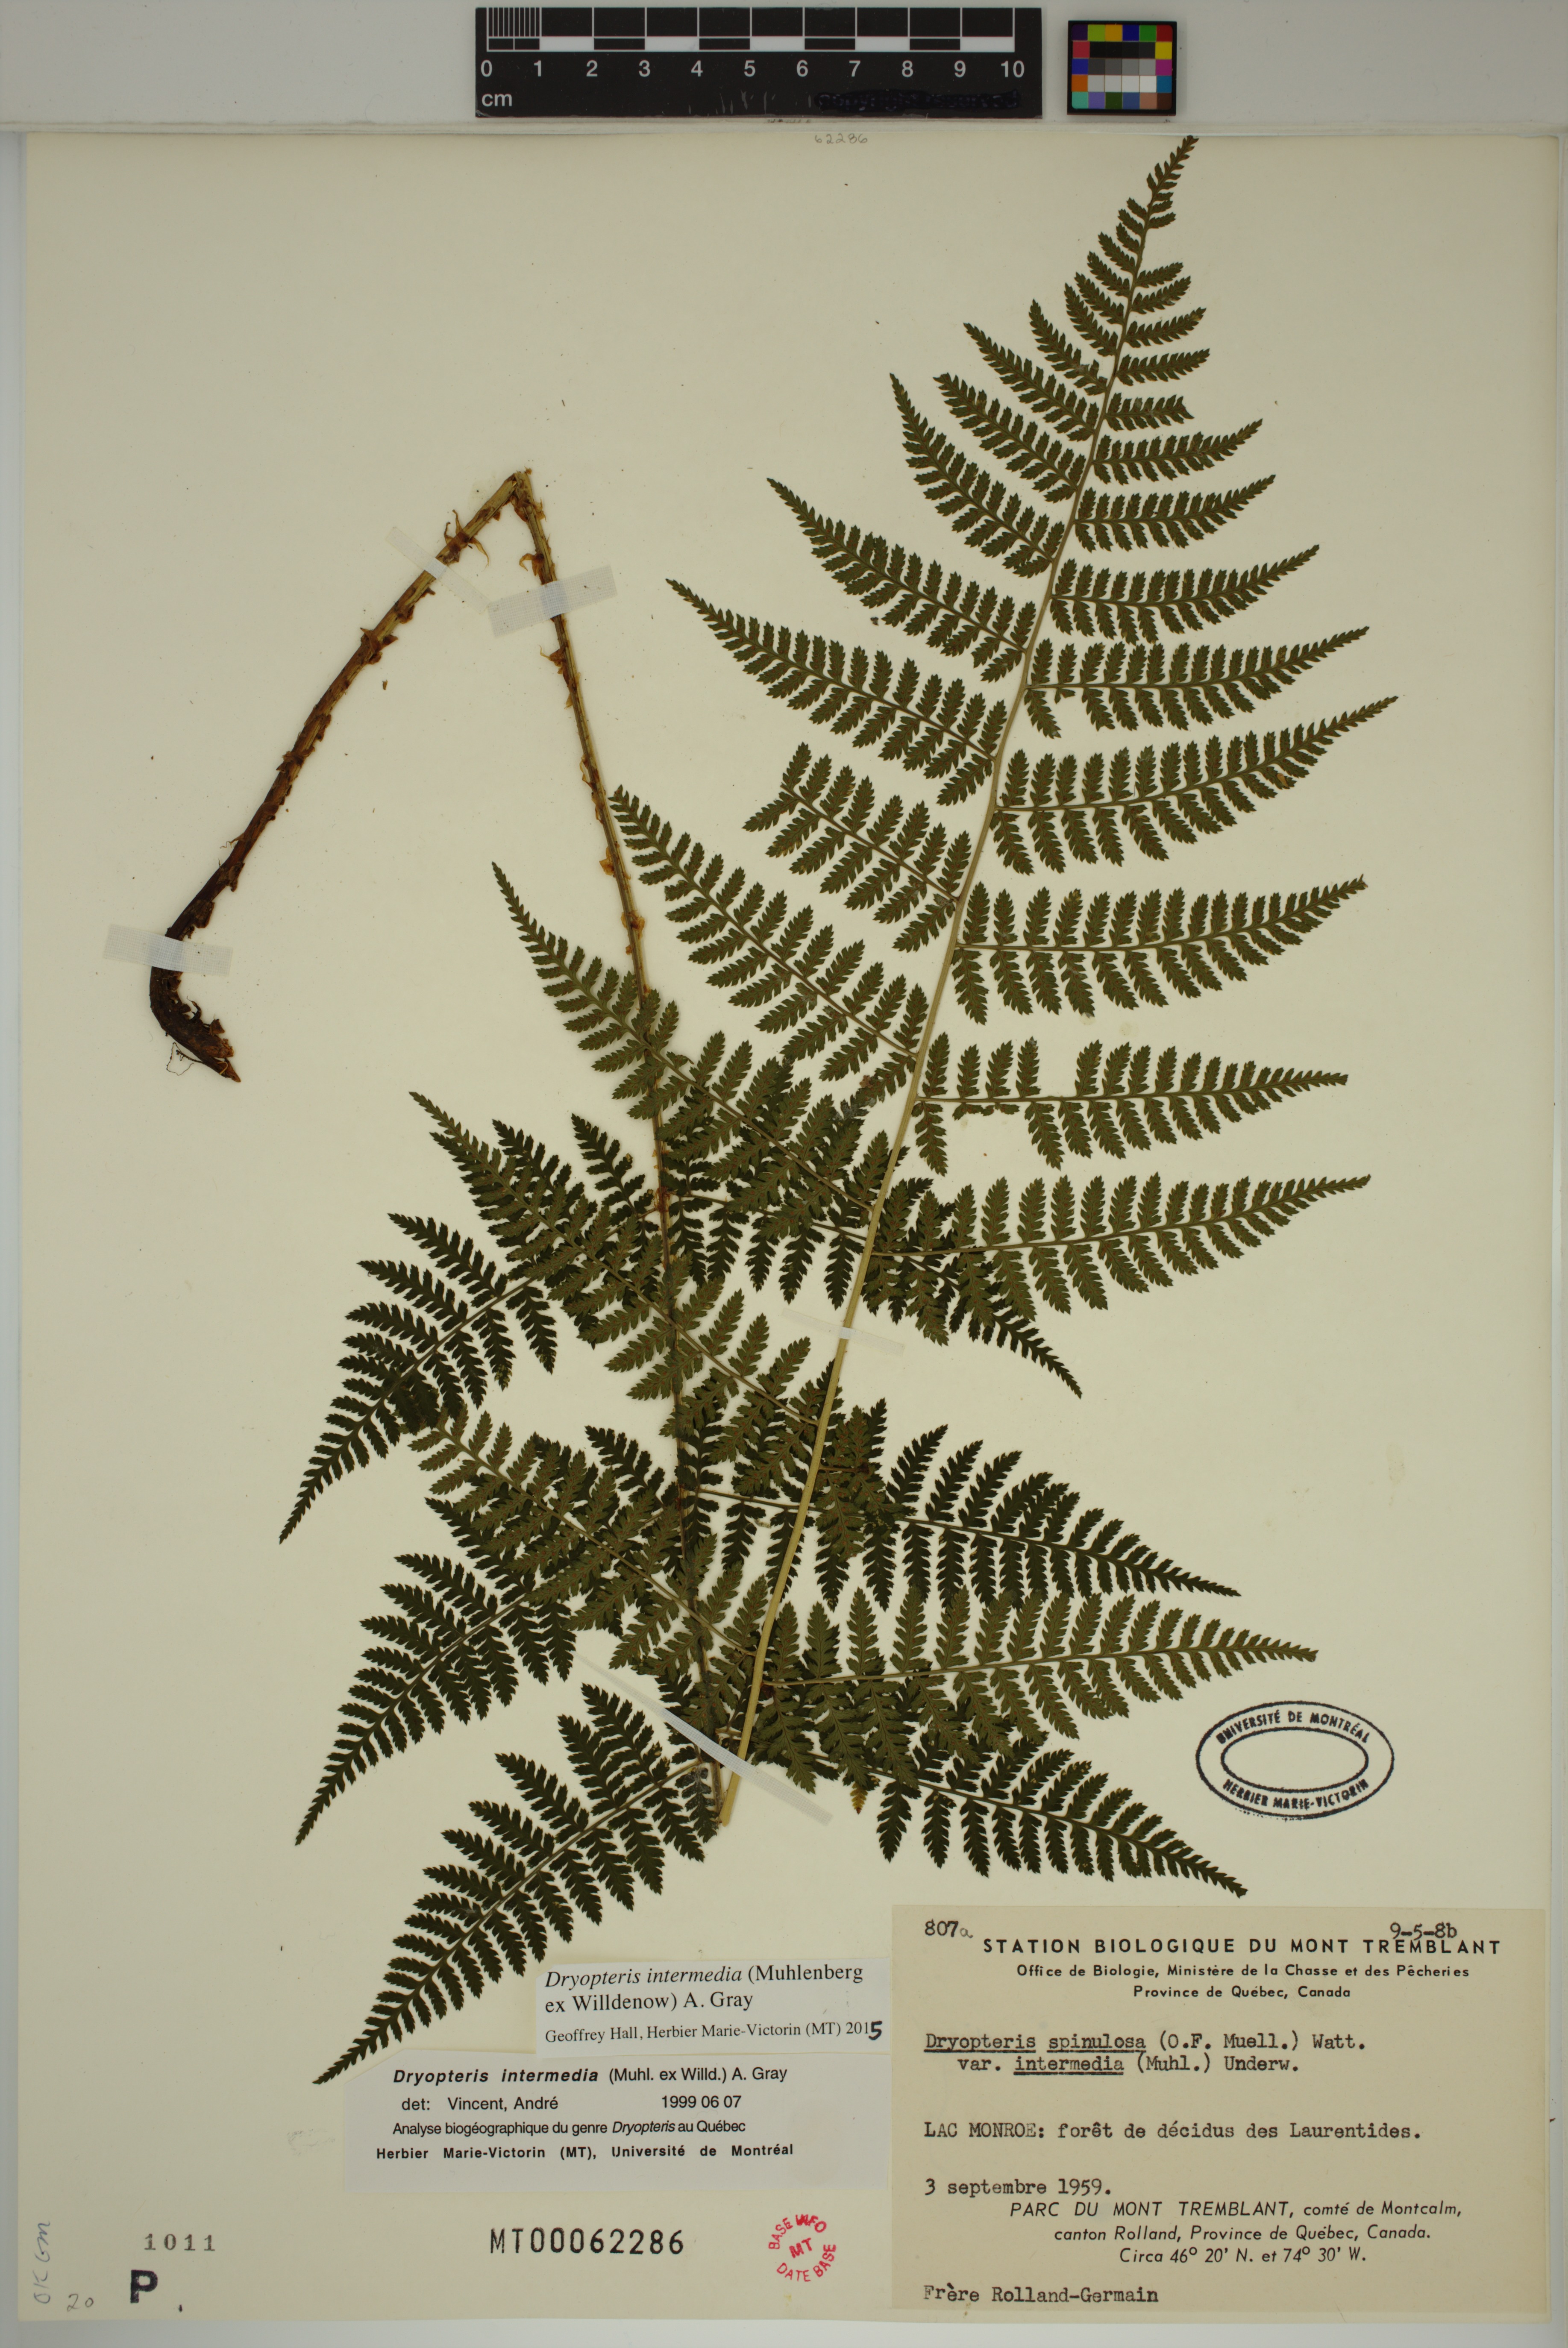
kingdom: Plantae
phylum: Tracheophyta
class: Polypodiopsida
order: Polypodiales
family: Dryopteridaceae
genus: Dryopteris
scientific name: Dryopteris intermedia
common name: Evergreen wood fern
